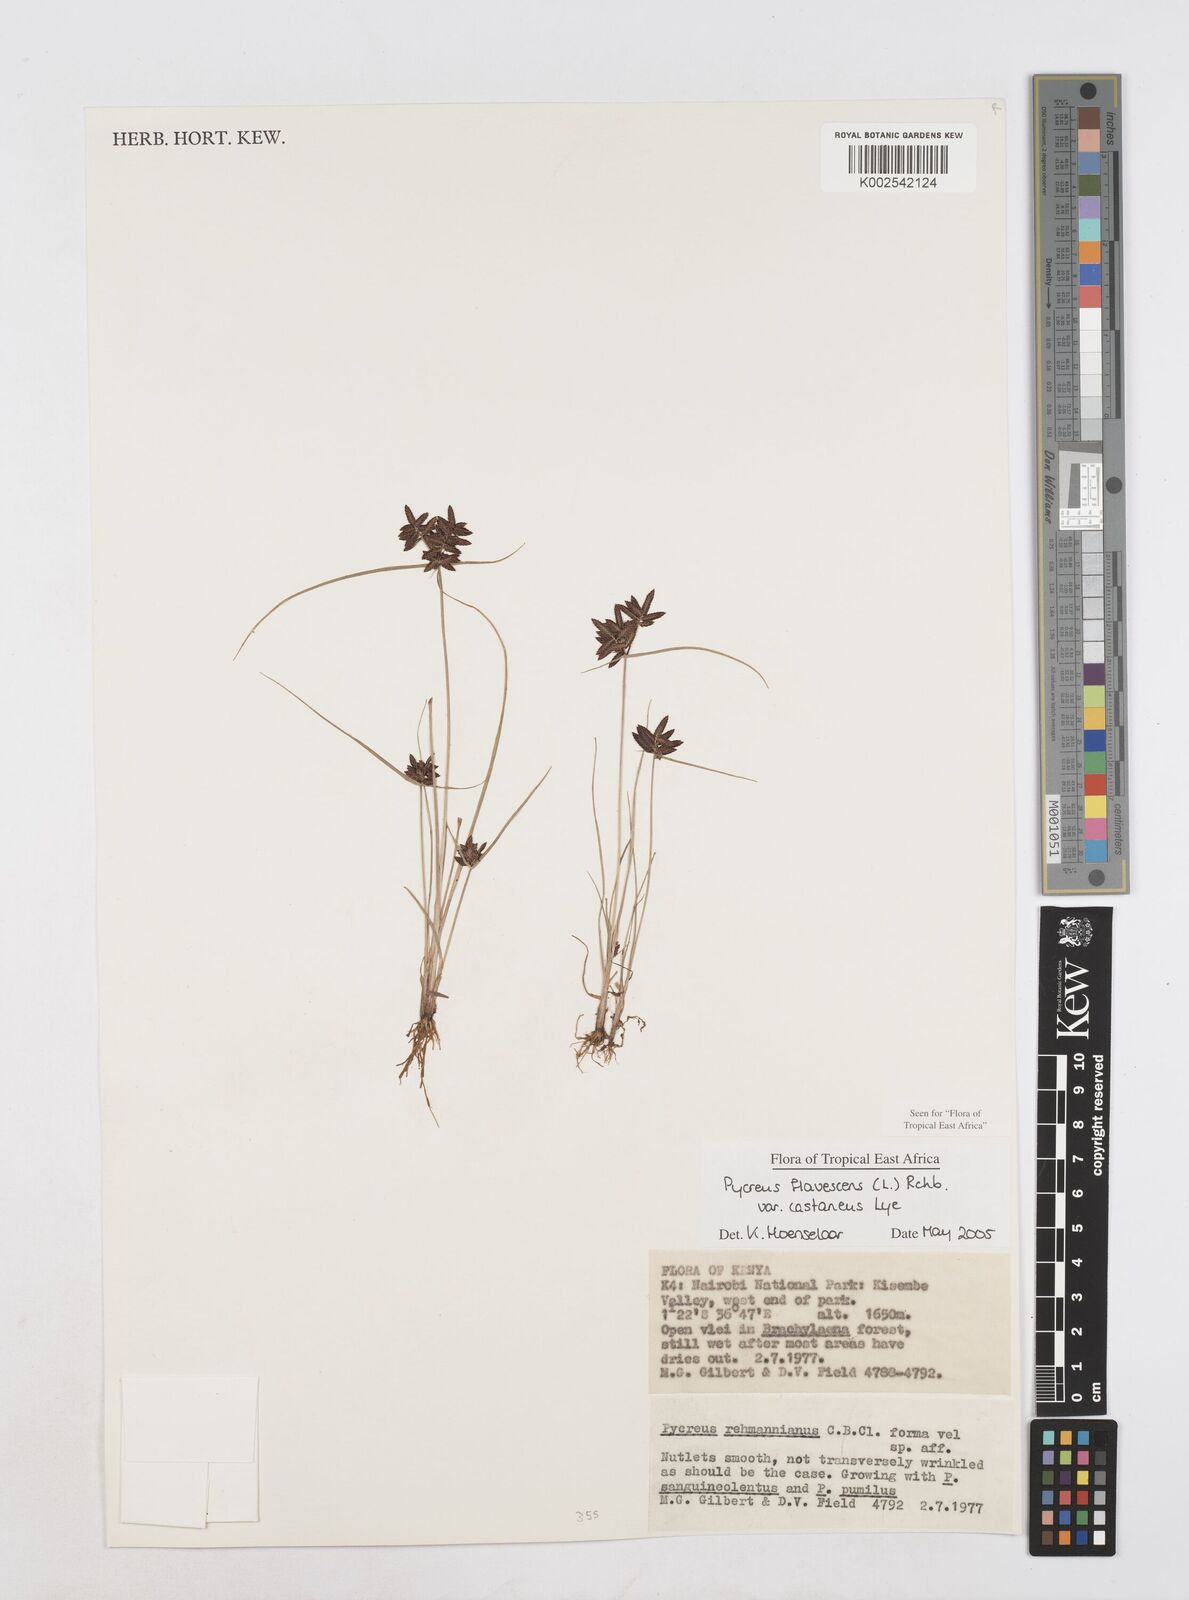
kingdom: Plantae
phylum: Tracheophyta
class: Liliopsida
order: Poales
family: Cyperaceae
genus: Cyperus
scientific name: Cyperus flavescens
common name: Yellow galingale
